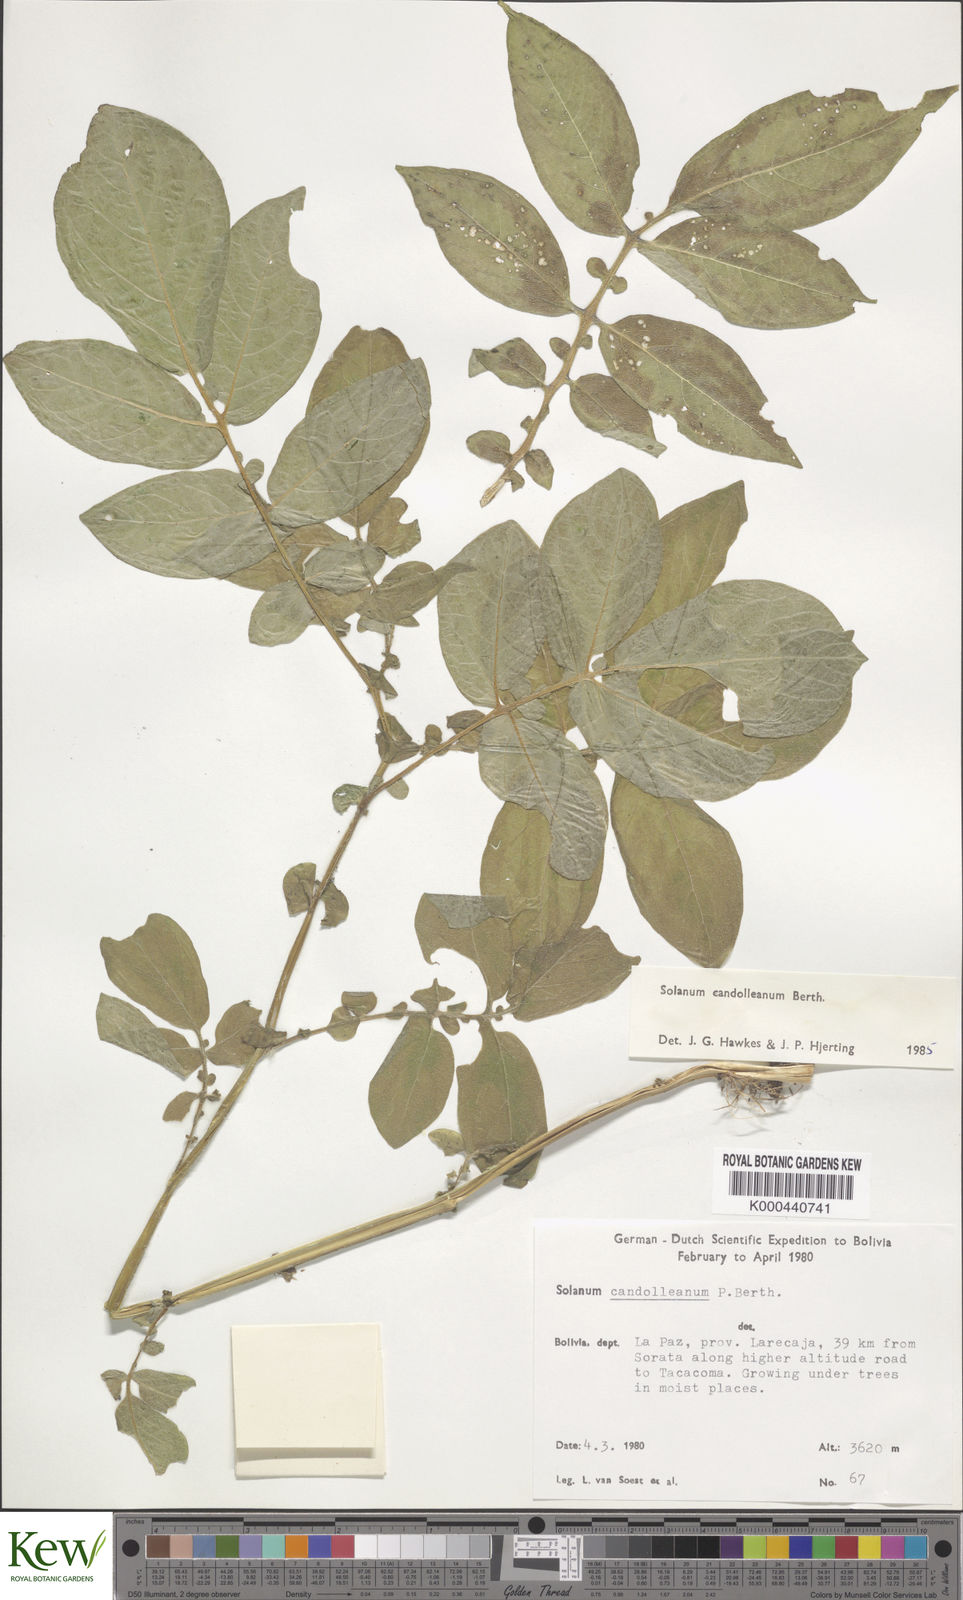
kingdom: Plantae
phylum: Tracheophyta
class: Magnoliopsida
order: Solanales
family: Solanaceae
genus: Solanum
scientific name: Solanum brevicaule
